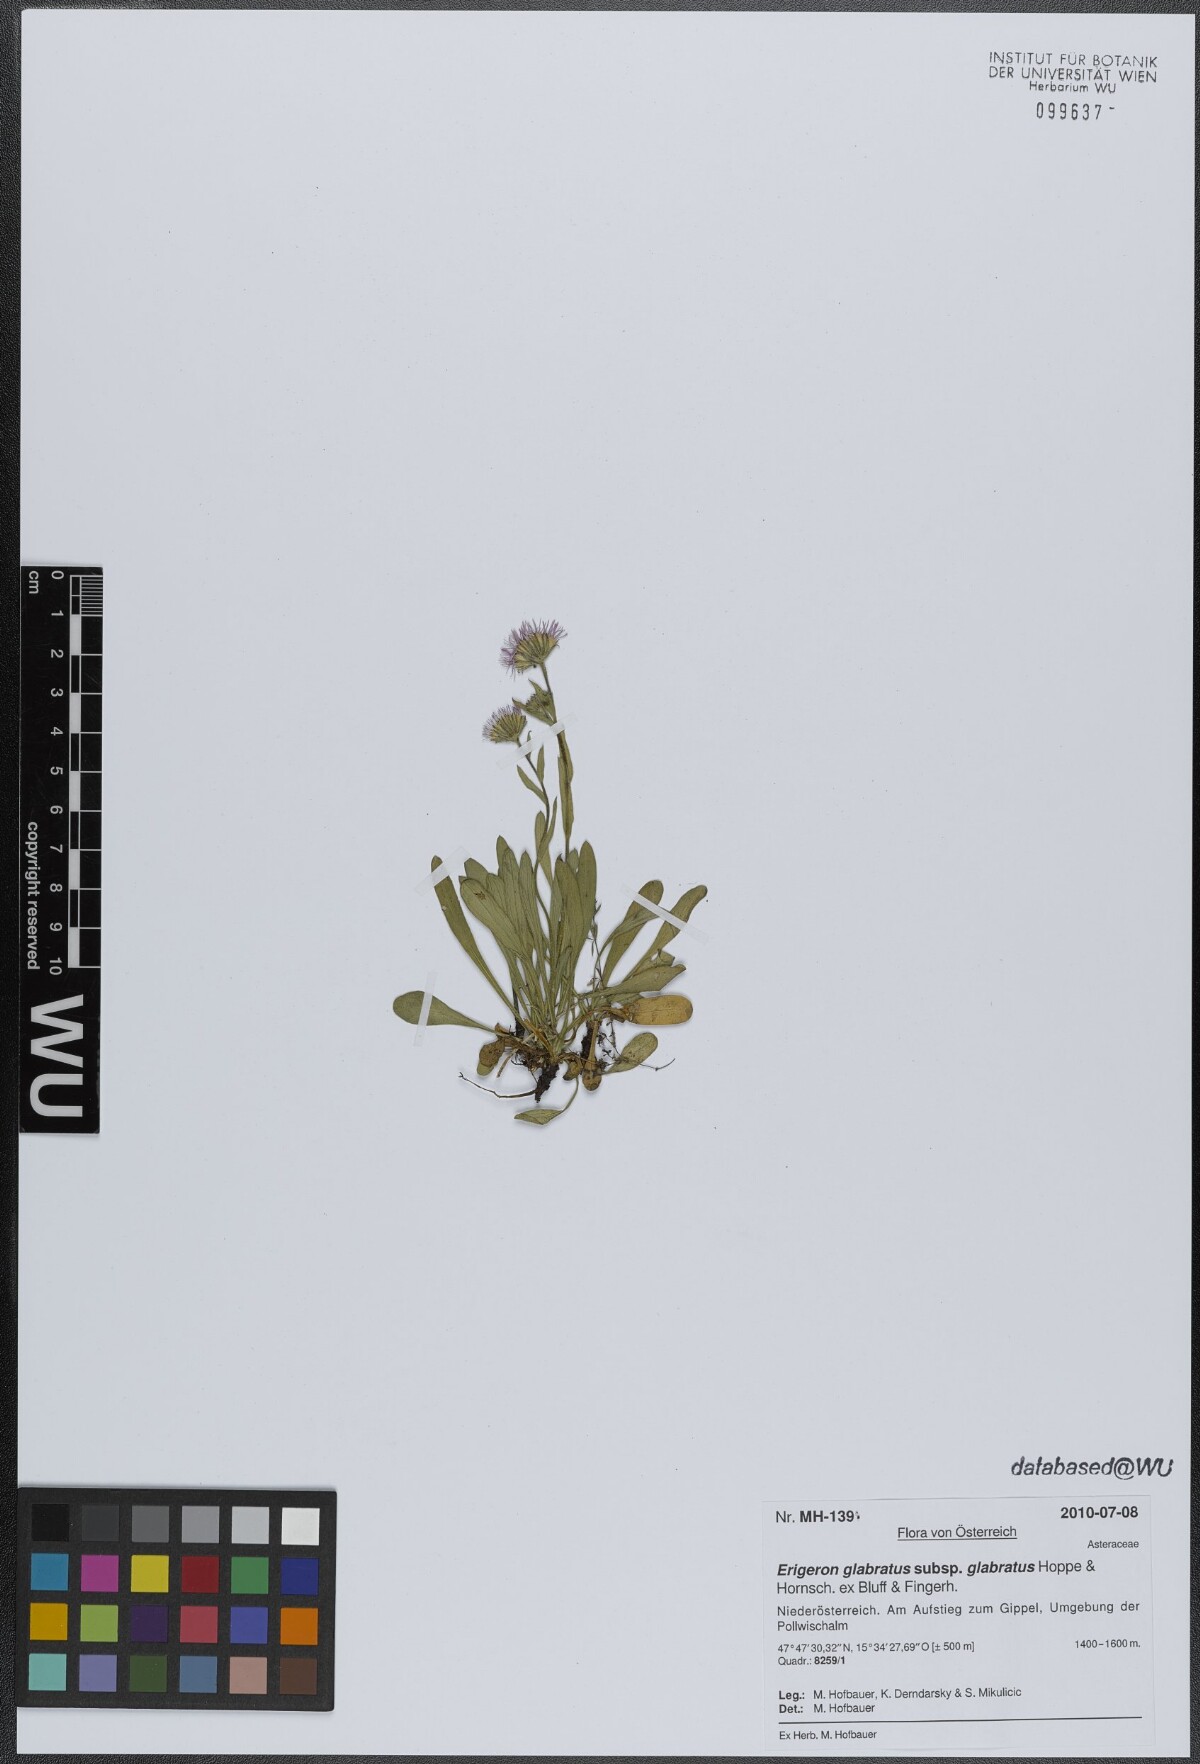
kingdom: Plantae
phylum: Tracheophyta
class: Magnoliopsida
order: Asterales
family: Asteraceae
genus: Erigeron
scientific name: Erigeron glabratus
